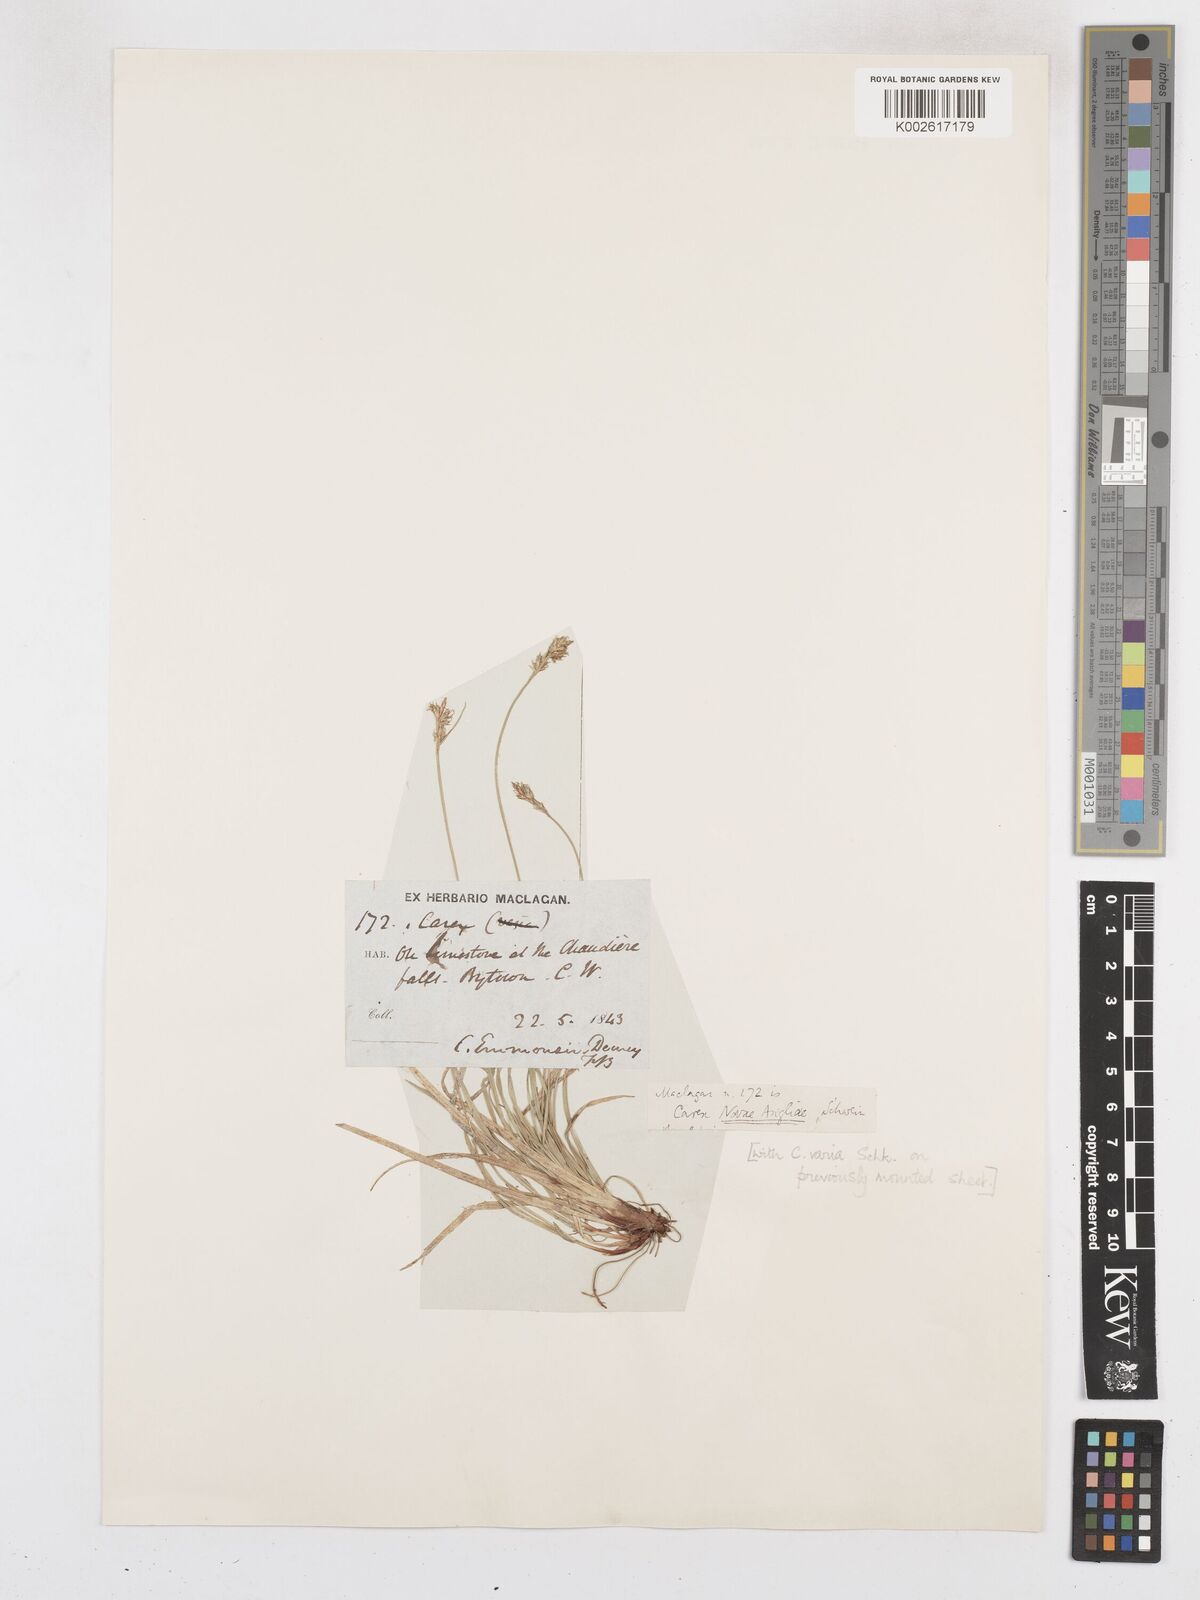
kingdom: Plantae
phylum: Tracheophyta
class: Liliopsida
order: Poales
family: Cyperaceae
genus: Carex
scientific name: Carex novae-angliae
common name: New england sedge
